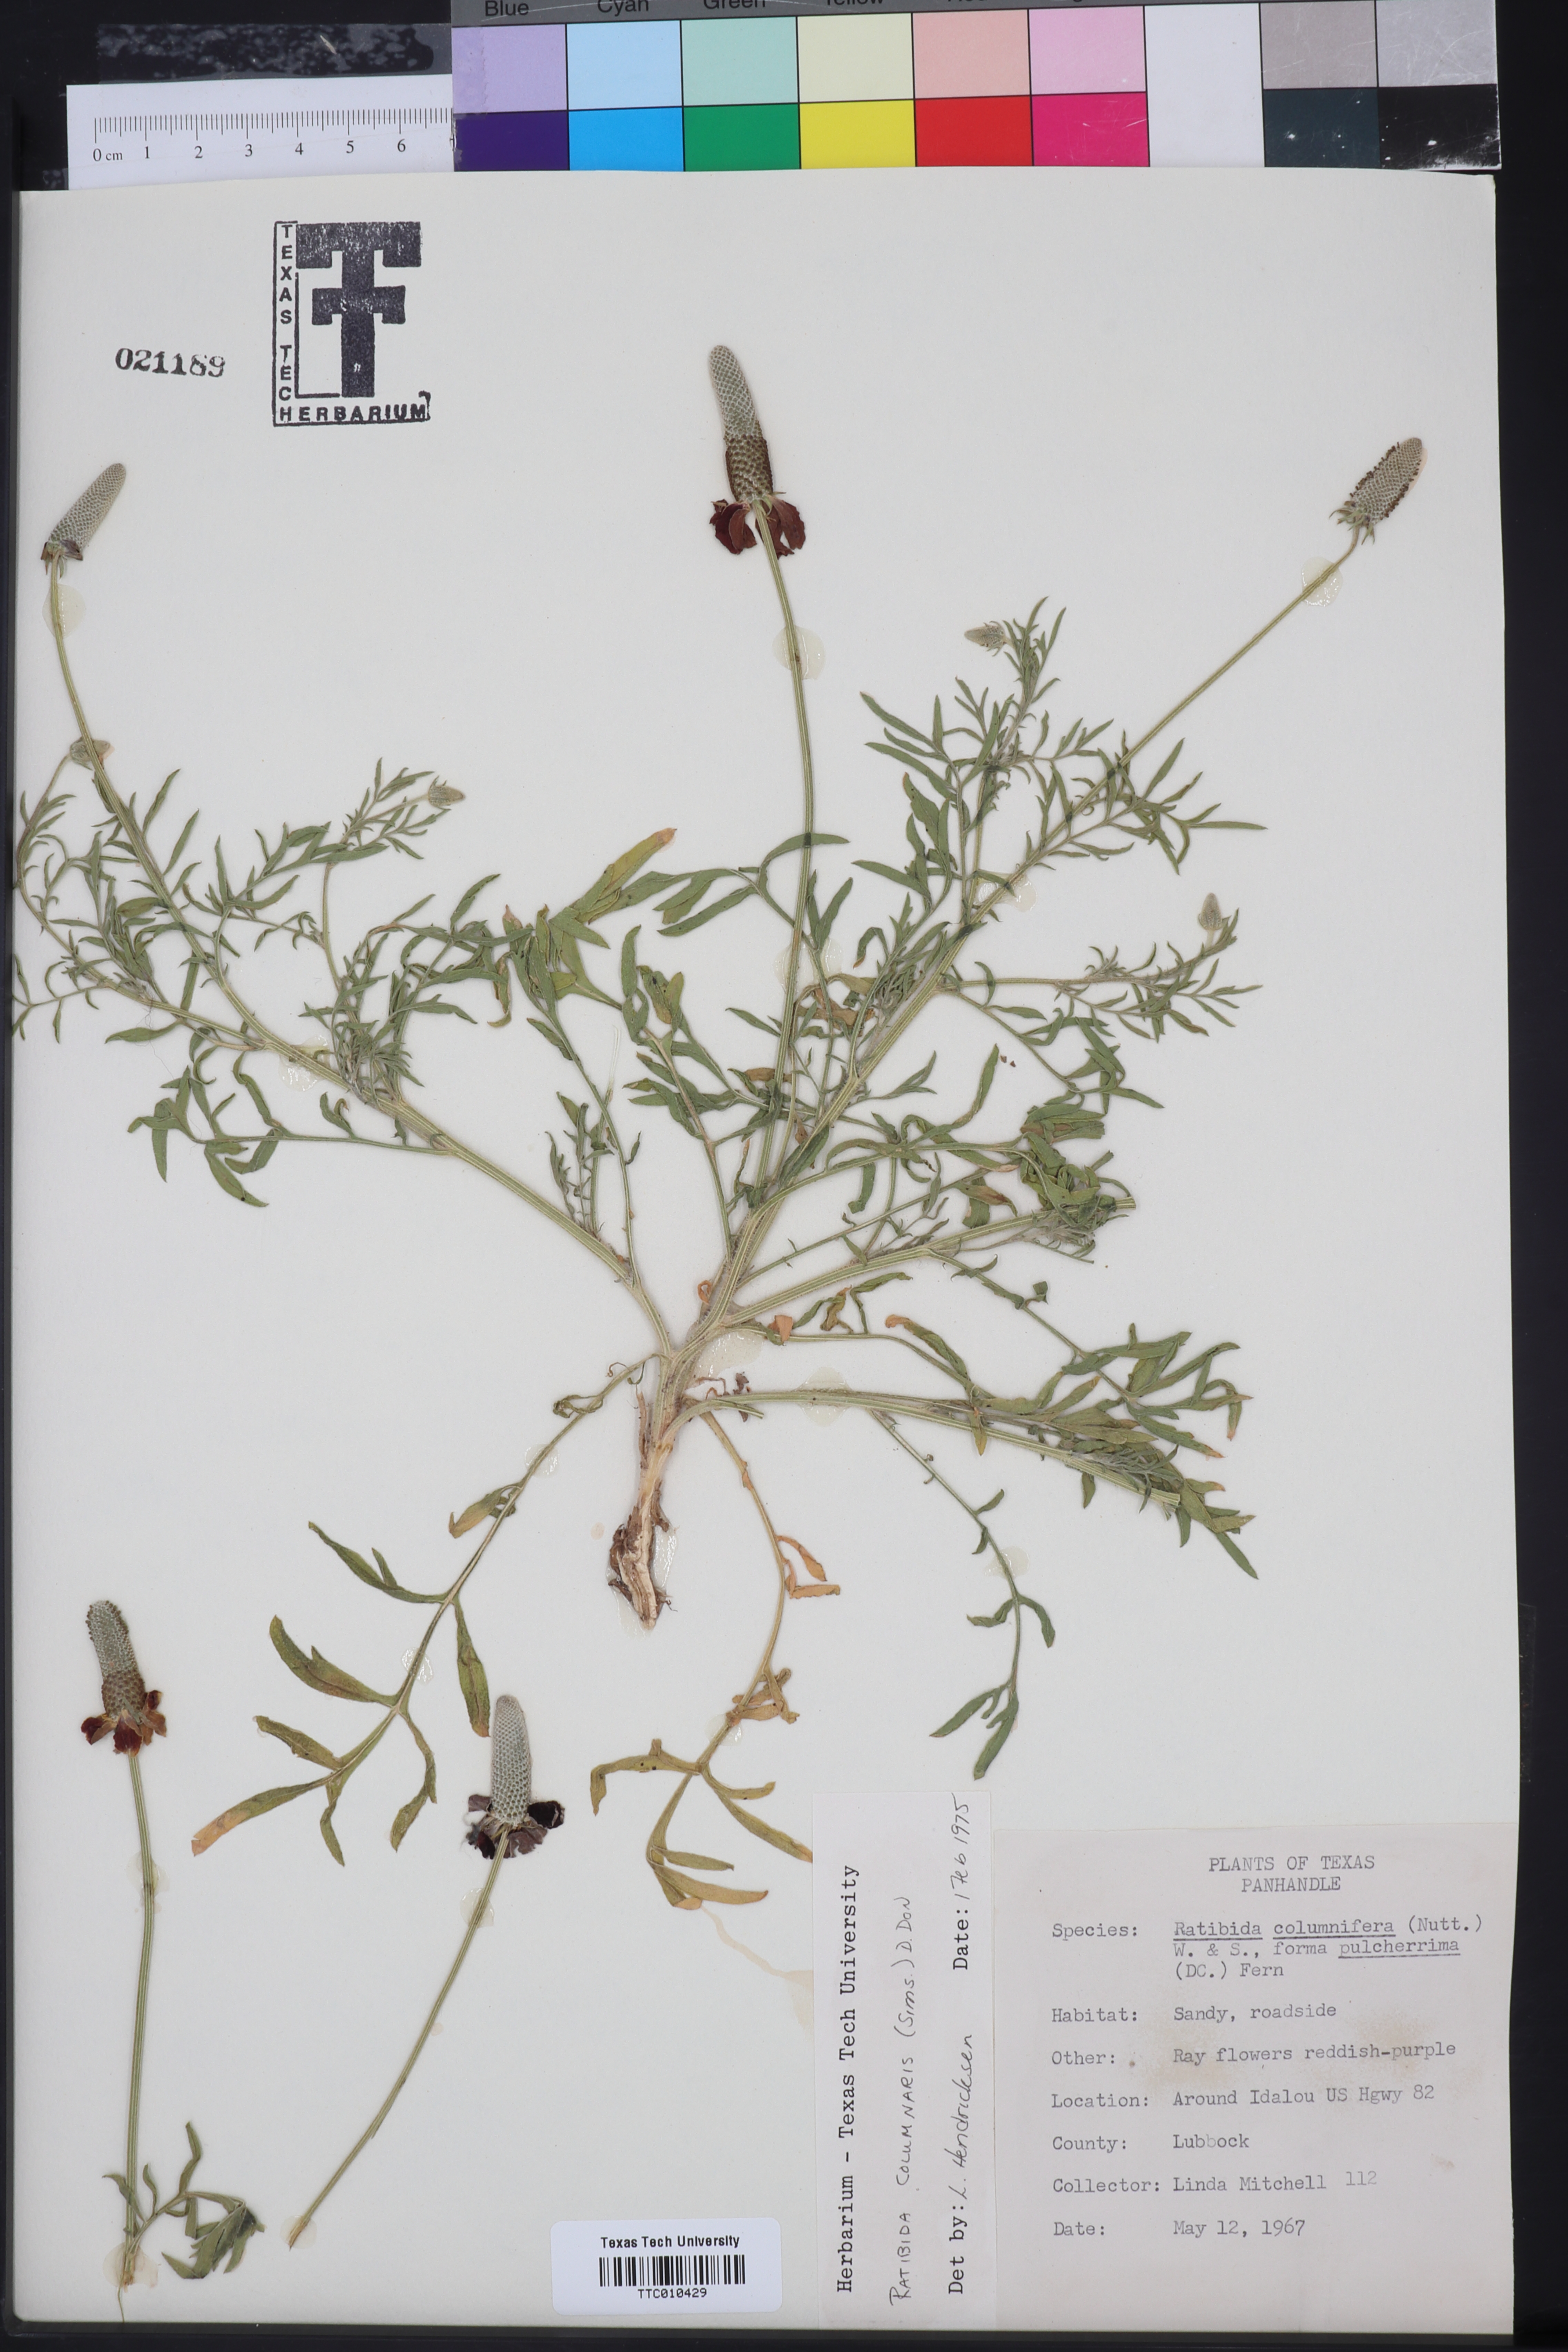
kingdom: Plantae
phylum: Tracheophyta
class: Magnoliopsida
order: Asterales
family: Asteraceae
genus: Ratibida
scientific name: Ratibida columnifera
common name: Prairie coneflower
